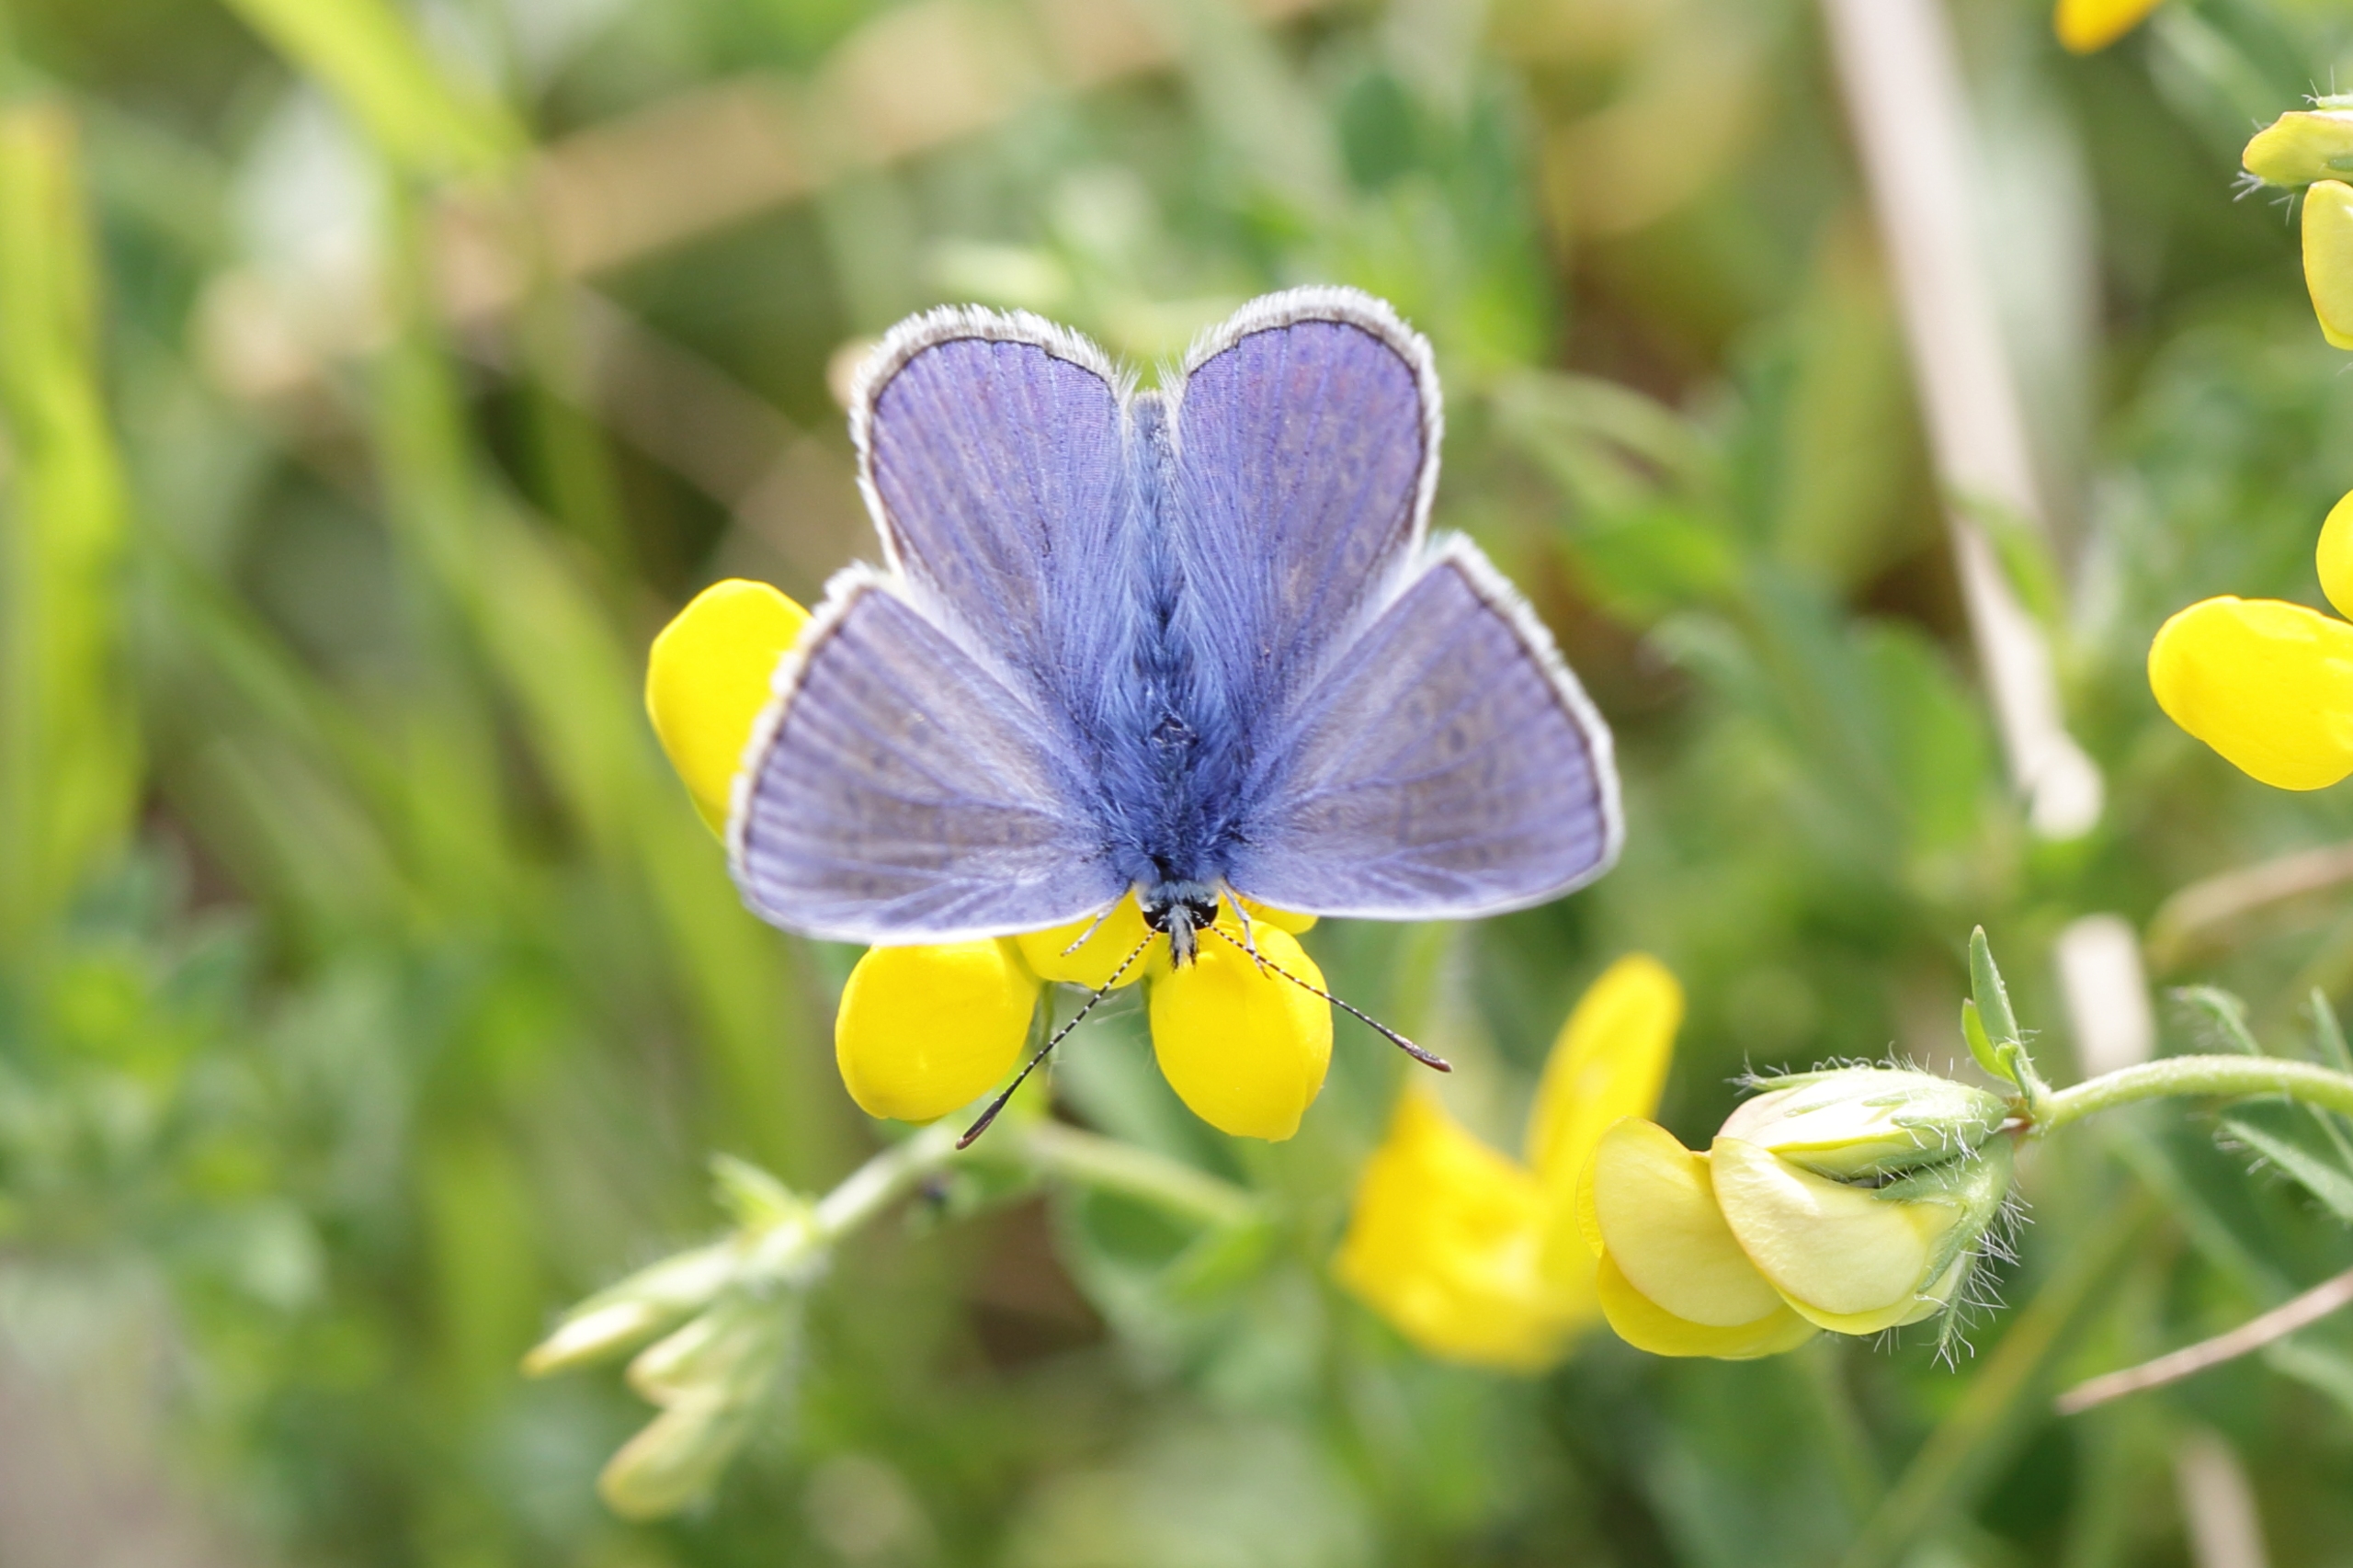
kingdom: Animalia
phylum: Arthropoda
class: Insecta
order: Lepidoptera
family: Lycaenidae
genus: Polyommatus
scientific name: Polyommatus icarus
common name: Almindelig blåfugl
